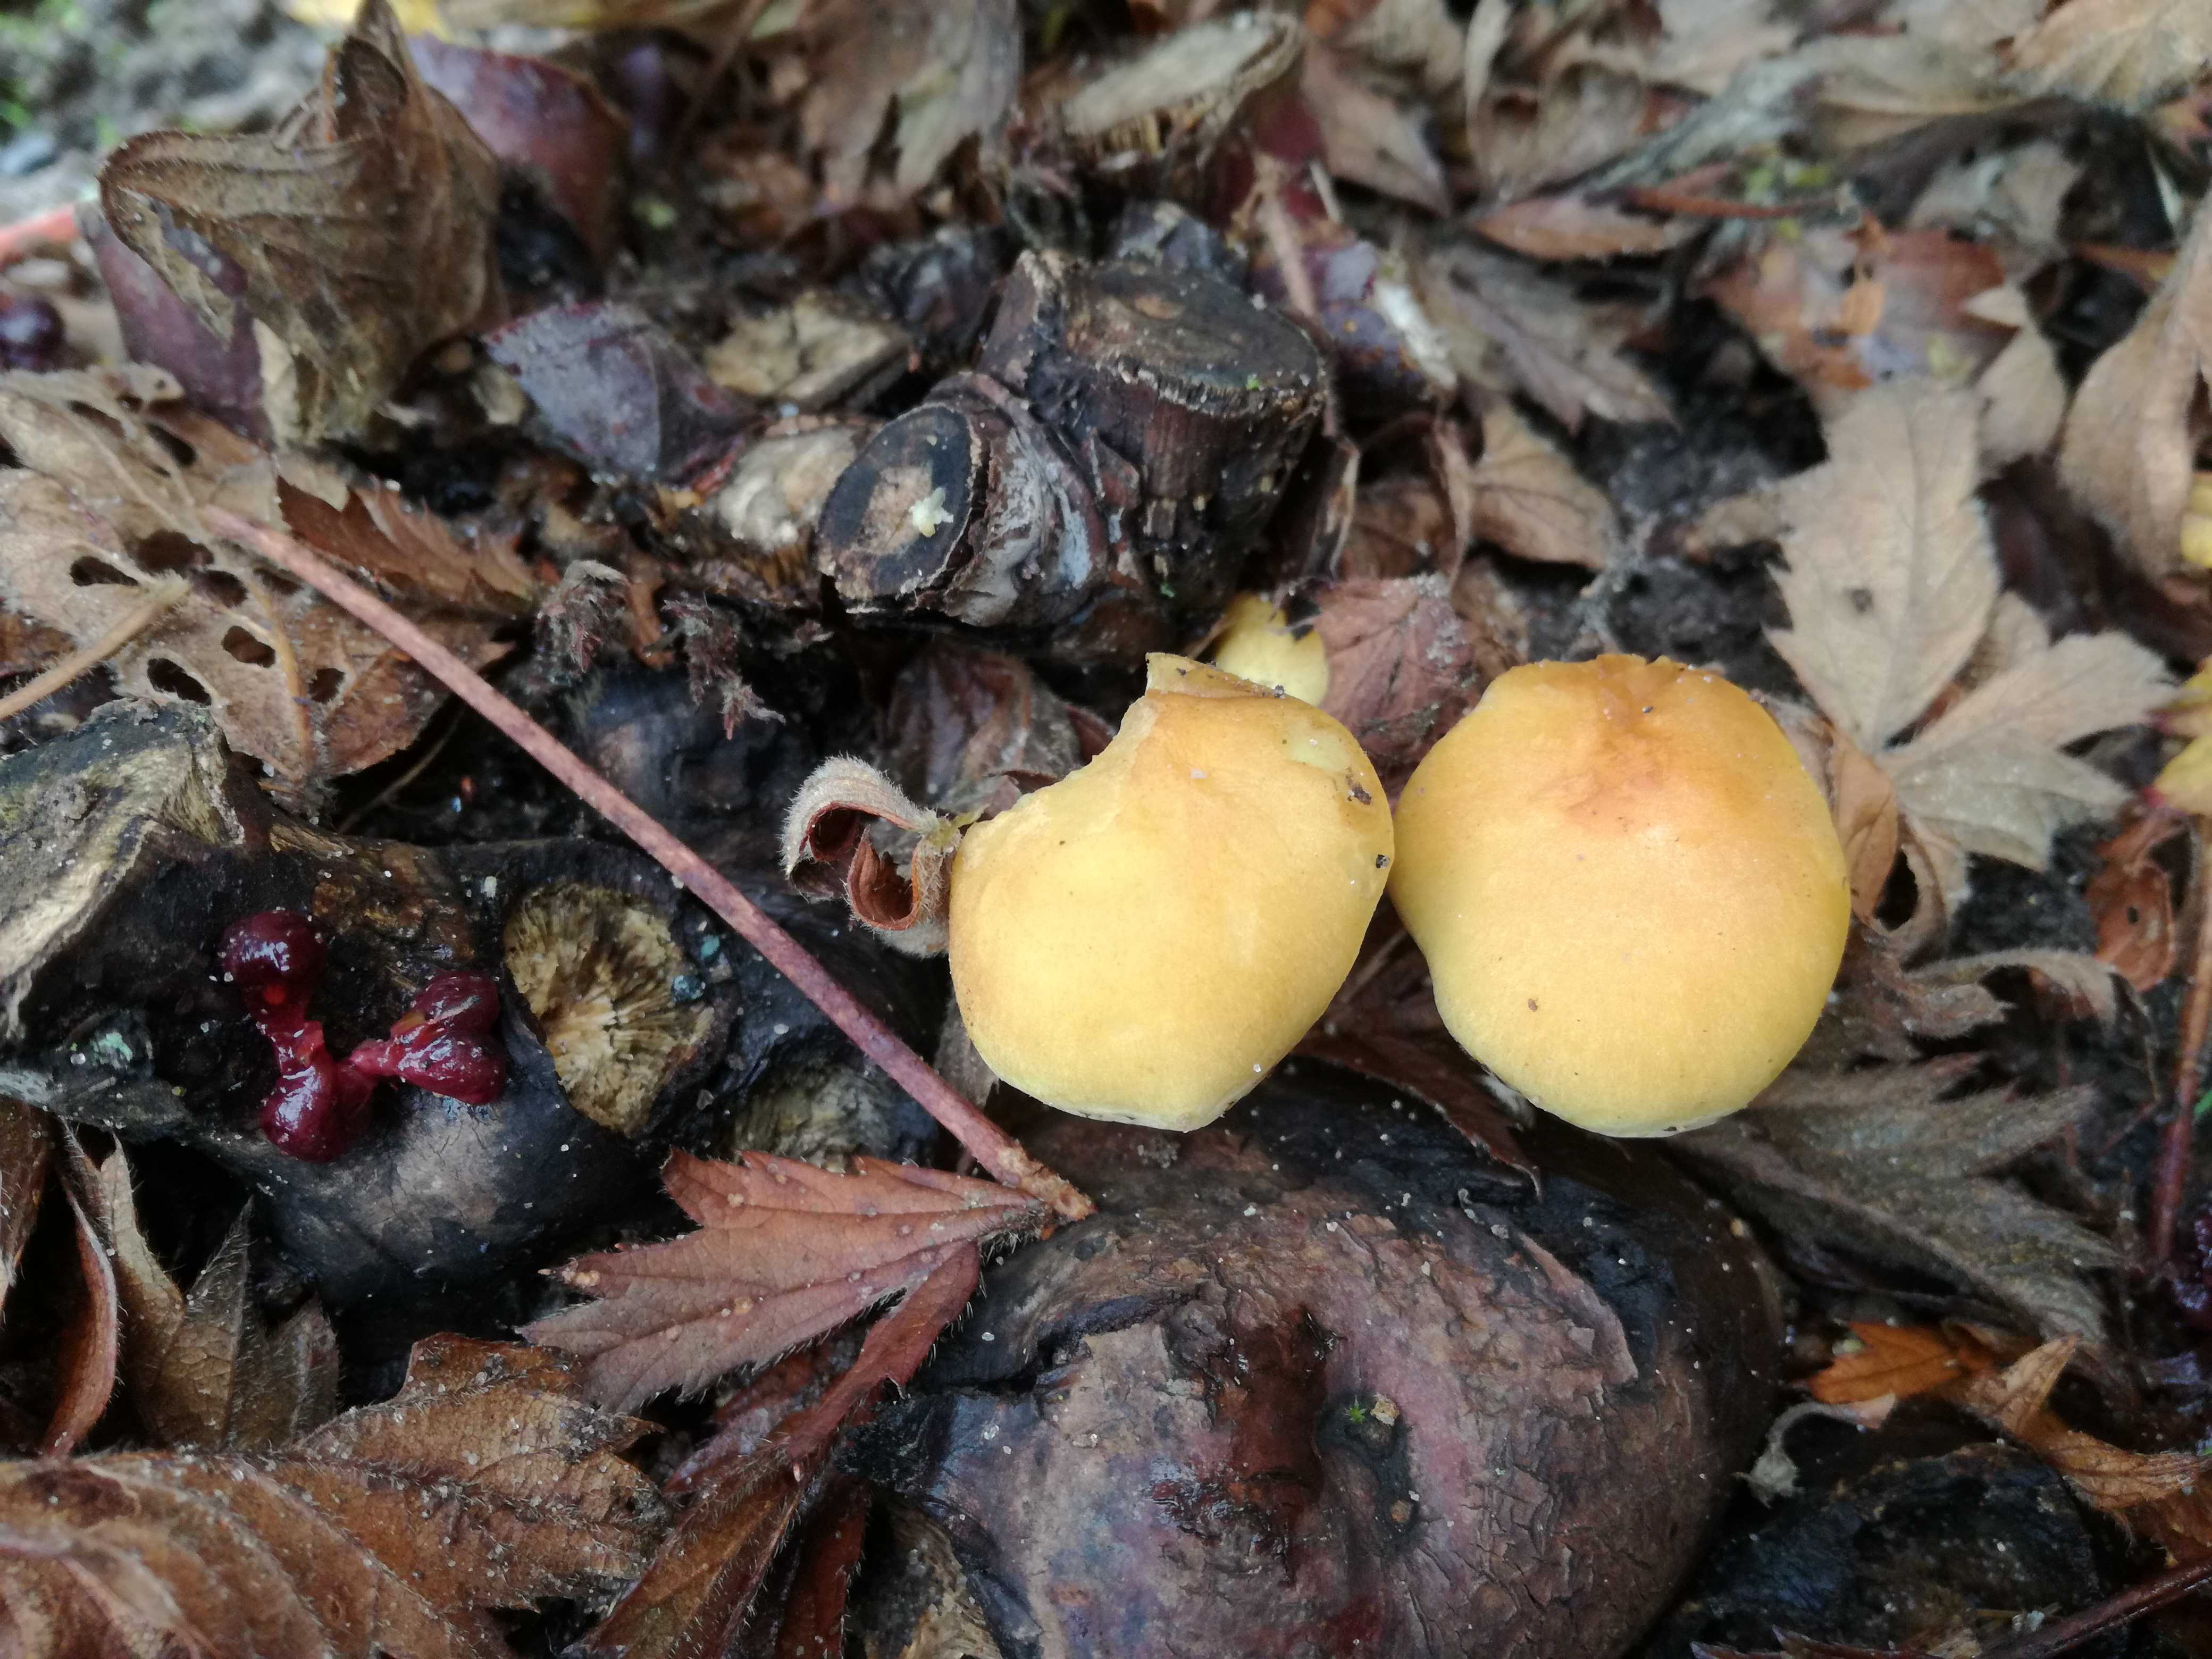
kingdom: Fungi
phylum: Basidiomycota
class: Agaricomycetes
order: Agaricales
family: Strophariaceae
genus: Hypholoma
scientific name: Hypholoma fasciculare
